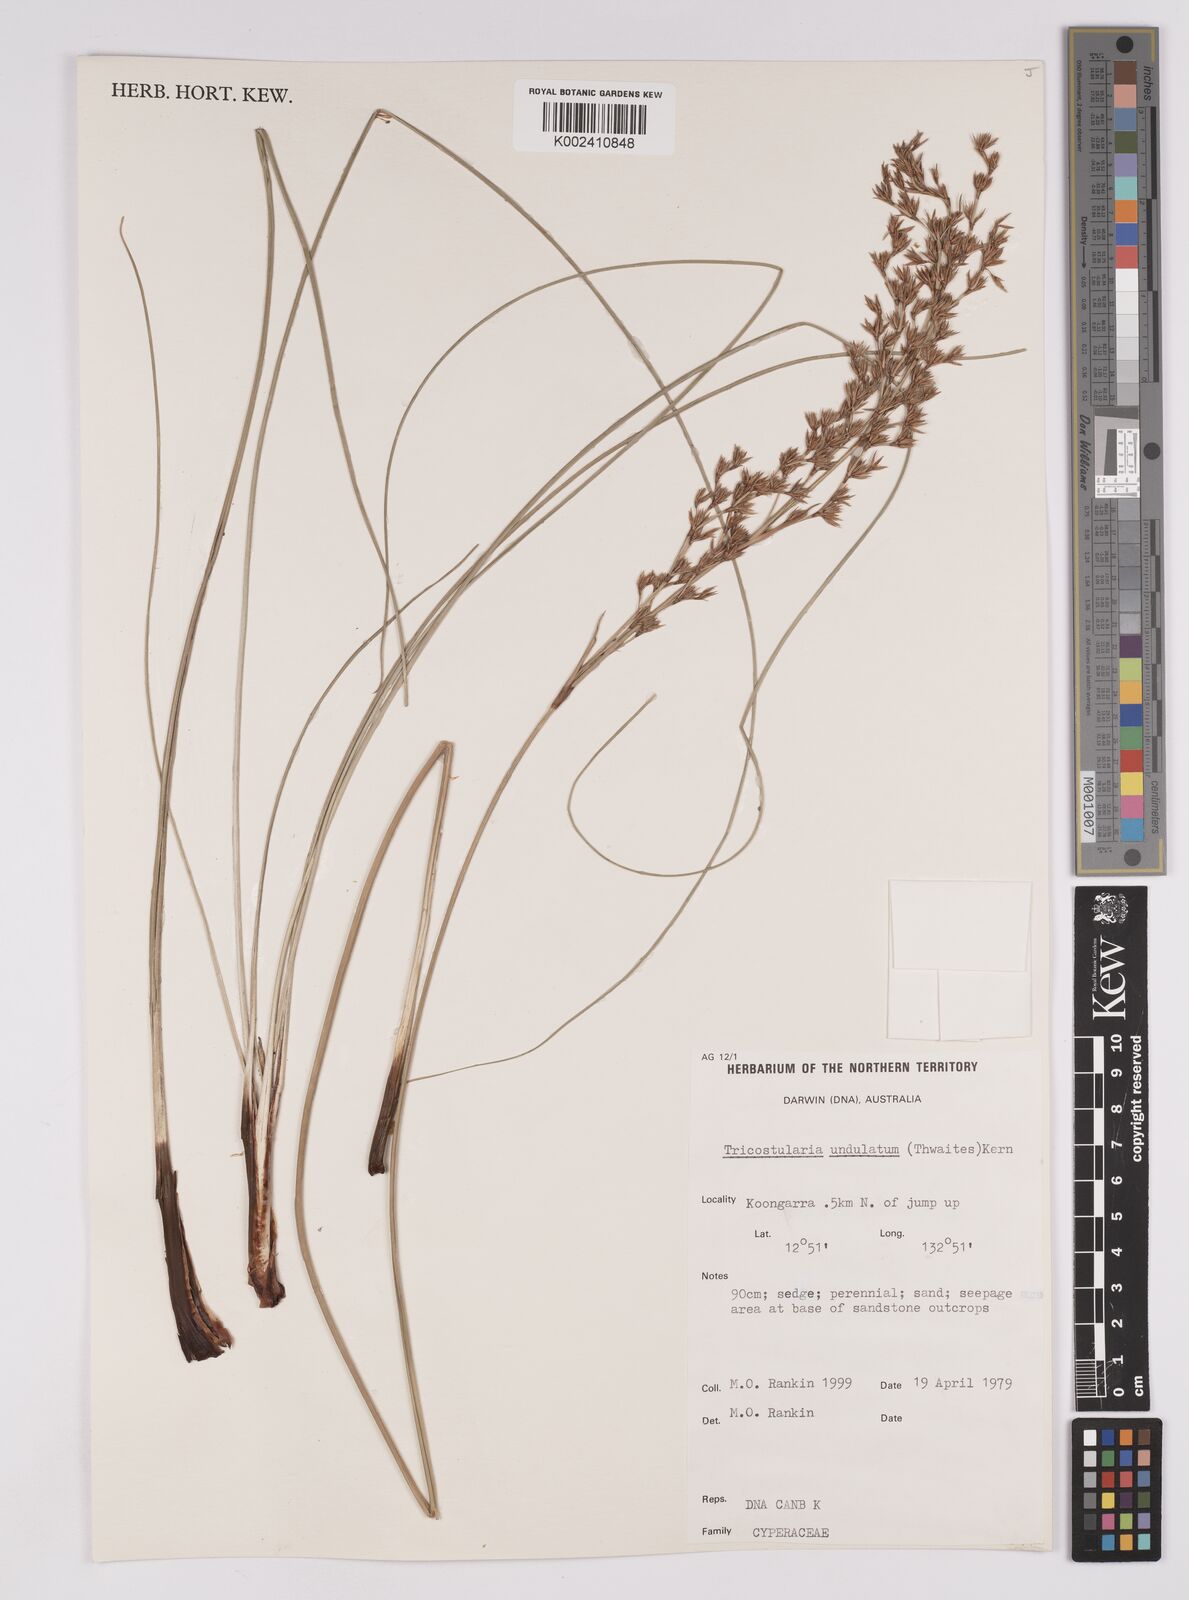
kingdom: Plantae
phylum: Tracheophyta
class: Liliopsida
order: Poales
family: Cyperaceae
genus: Anthelepis
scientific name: Anthelepis undulata
